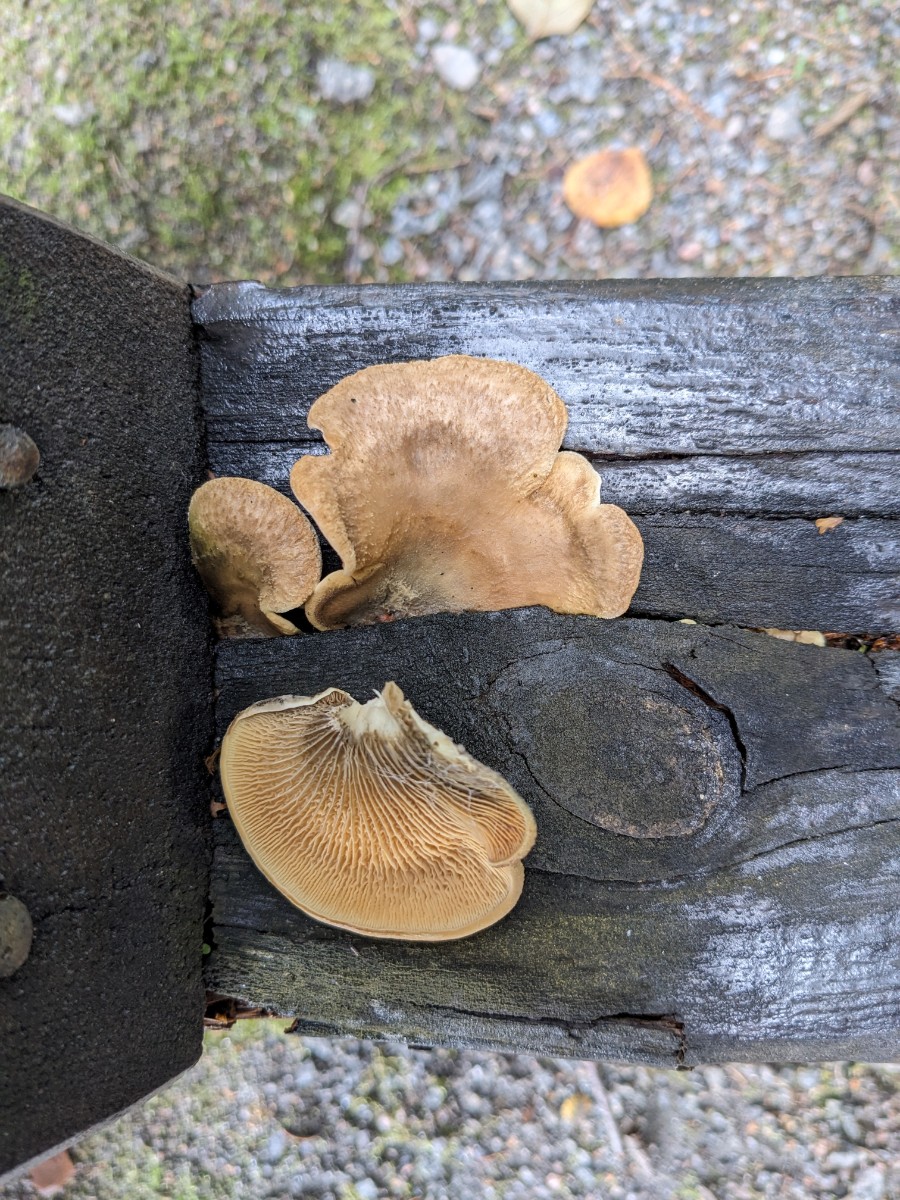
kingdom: Fungi
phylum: Basidiomycota
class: Agaricomycetes
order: Boletales
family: Tapinellaceae
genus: Tapinella
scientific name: Tapinella panuoides
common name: tømmer-viftesvamp
